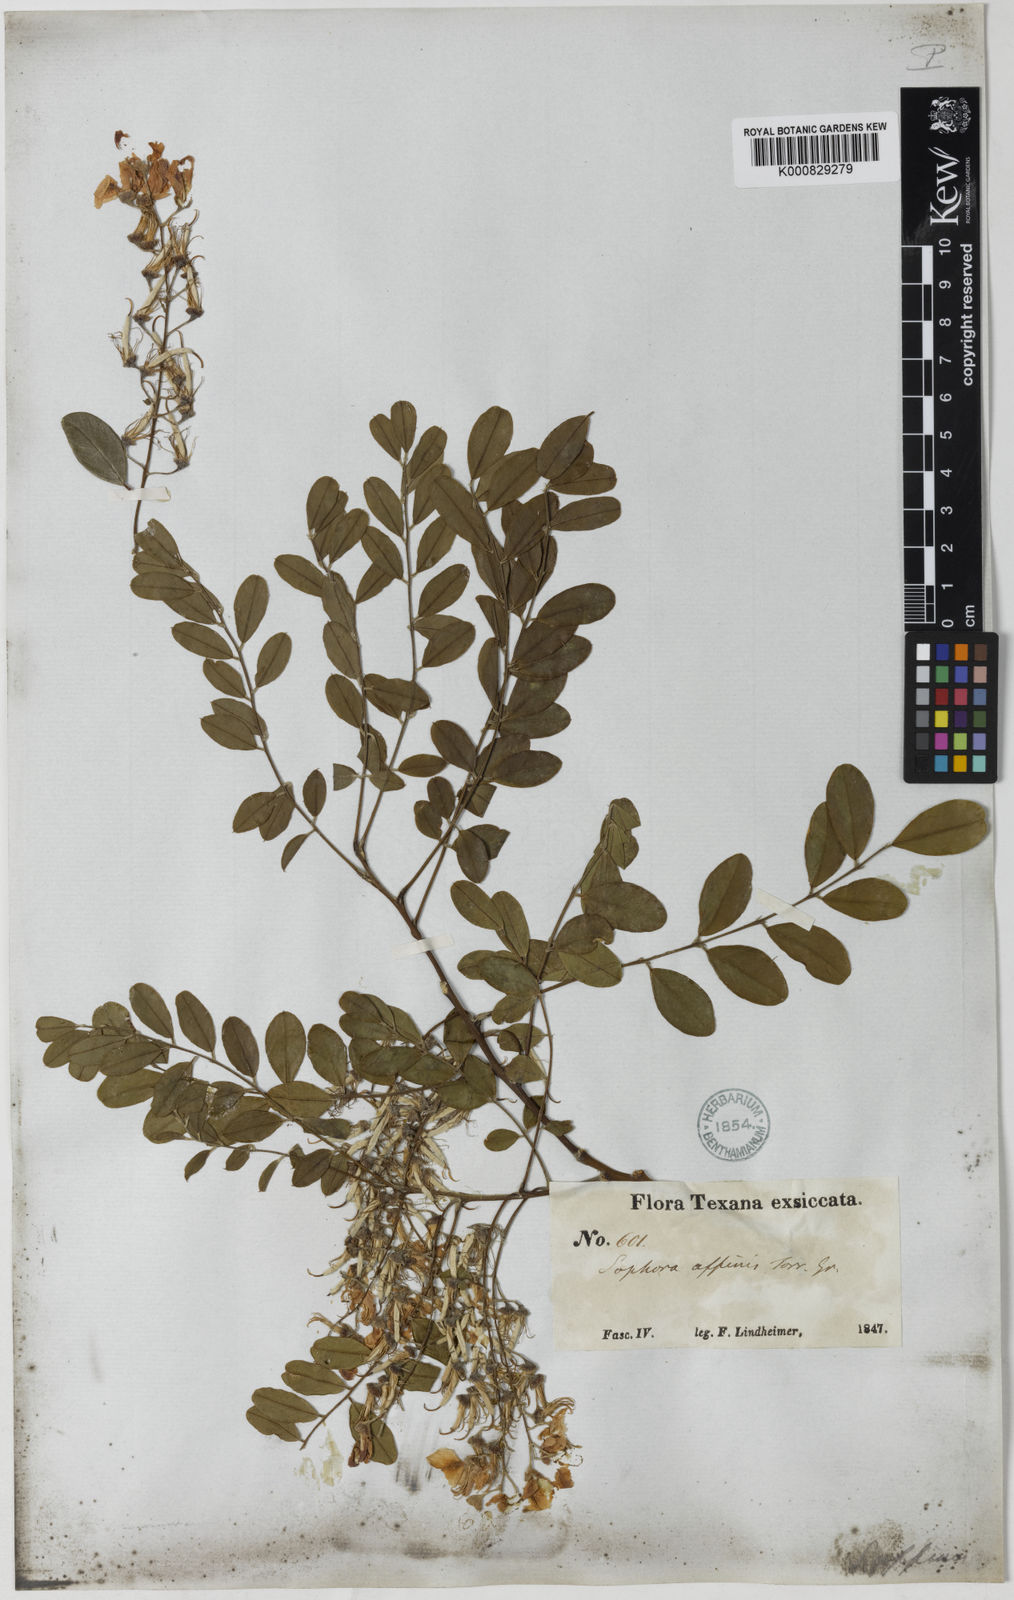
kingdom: Plantae
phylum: Tracheophyta
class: Magnoliopsida
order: Fabales
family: Fabaceae
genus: Styphnolobium
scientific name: Styphnolobium affine
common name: Texas sophora
